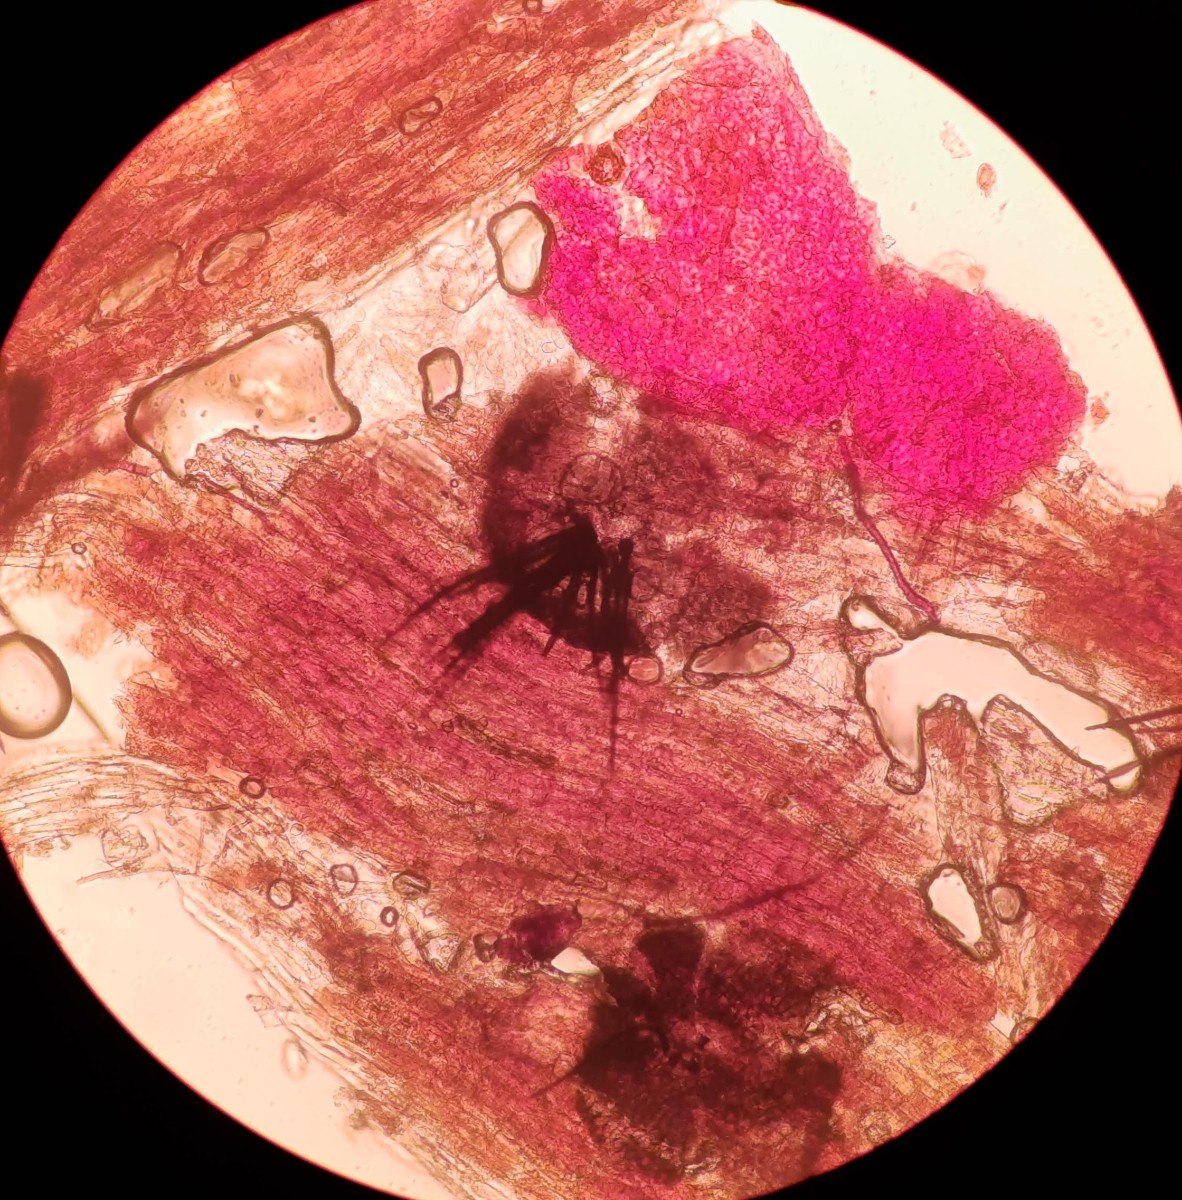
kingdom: Fungi
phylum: Ascomycota
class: Dothideomycetes
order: Venturiales
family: Venturiaceae
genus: Venturia
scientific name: Venturia ditricha
